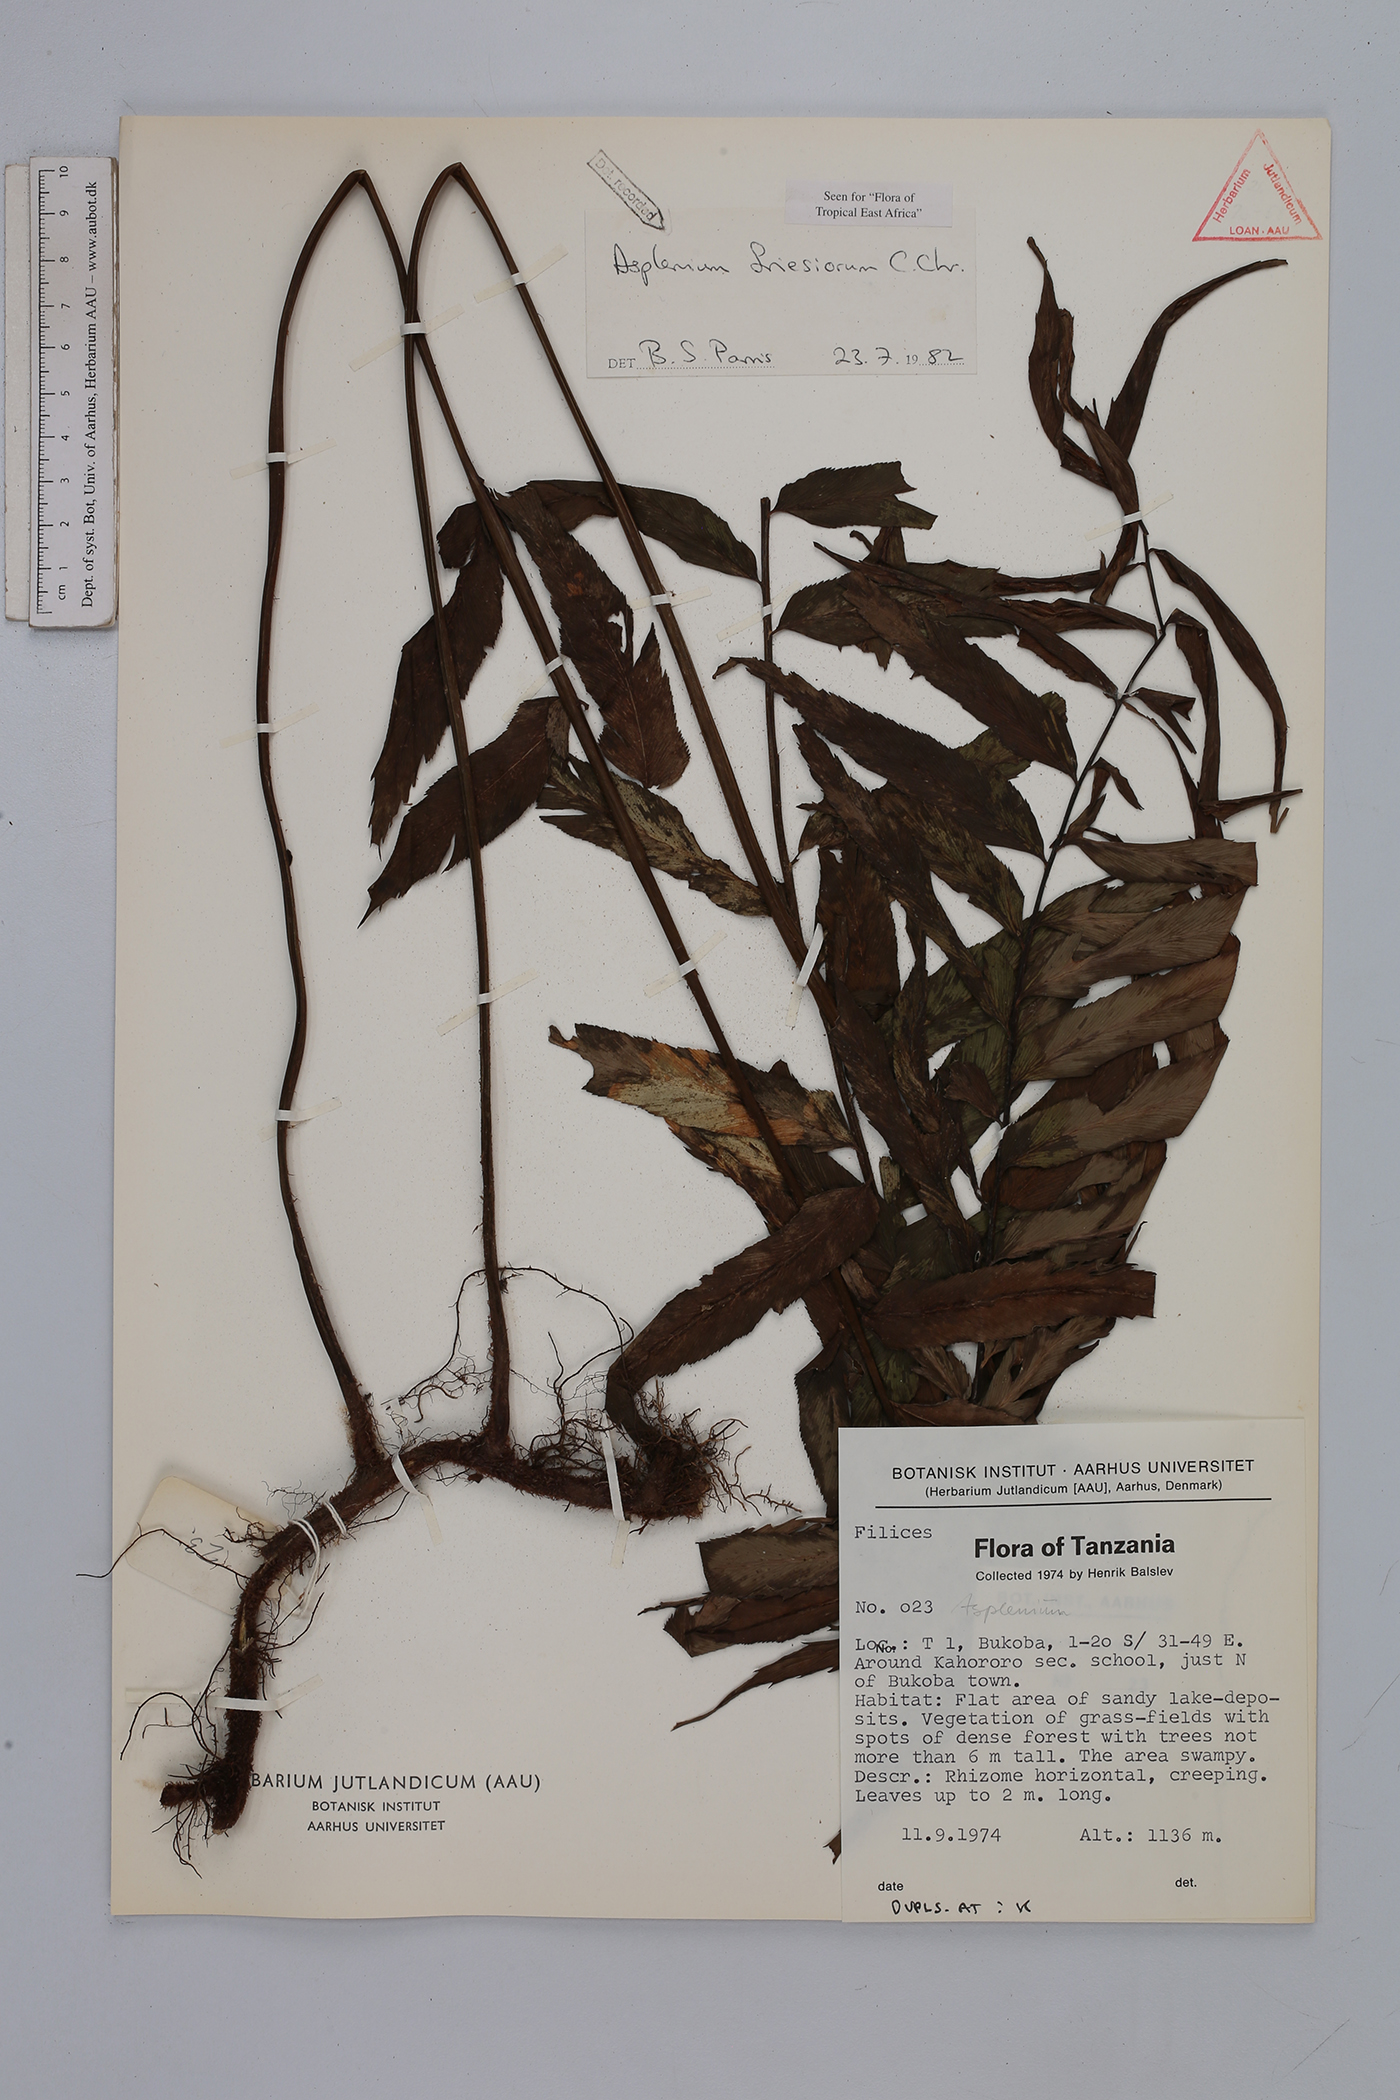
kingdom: Plantae
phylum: Tracheophyta
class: Polypodiopsida
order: Polypodiales
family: Aspleniaceae
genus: Asplenium
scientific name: Asplenium gueinzianum
